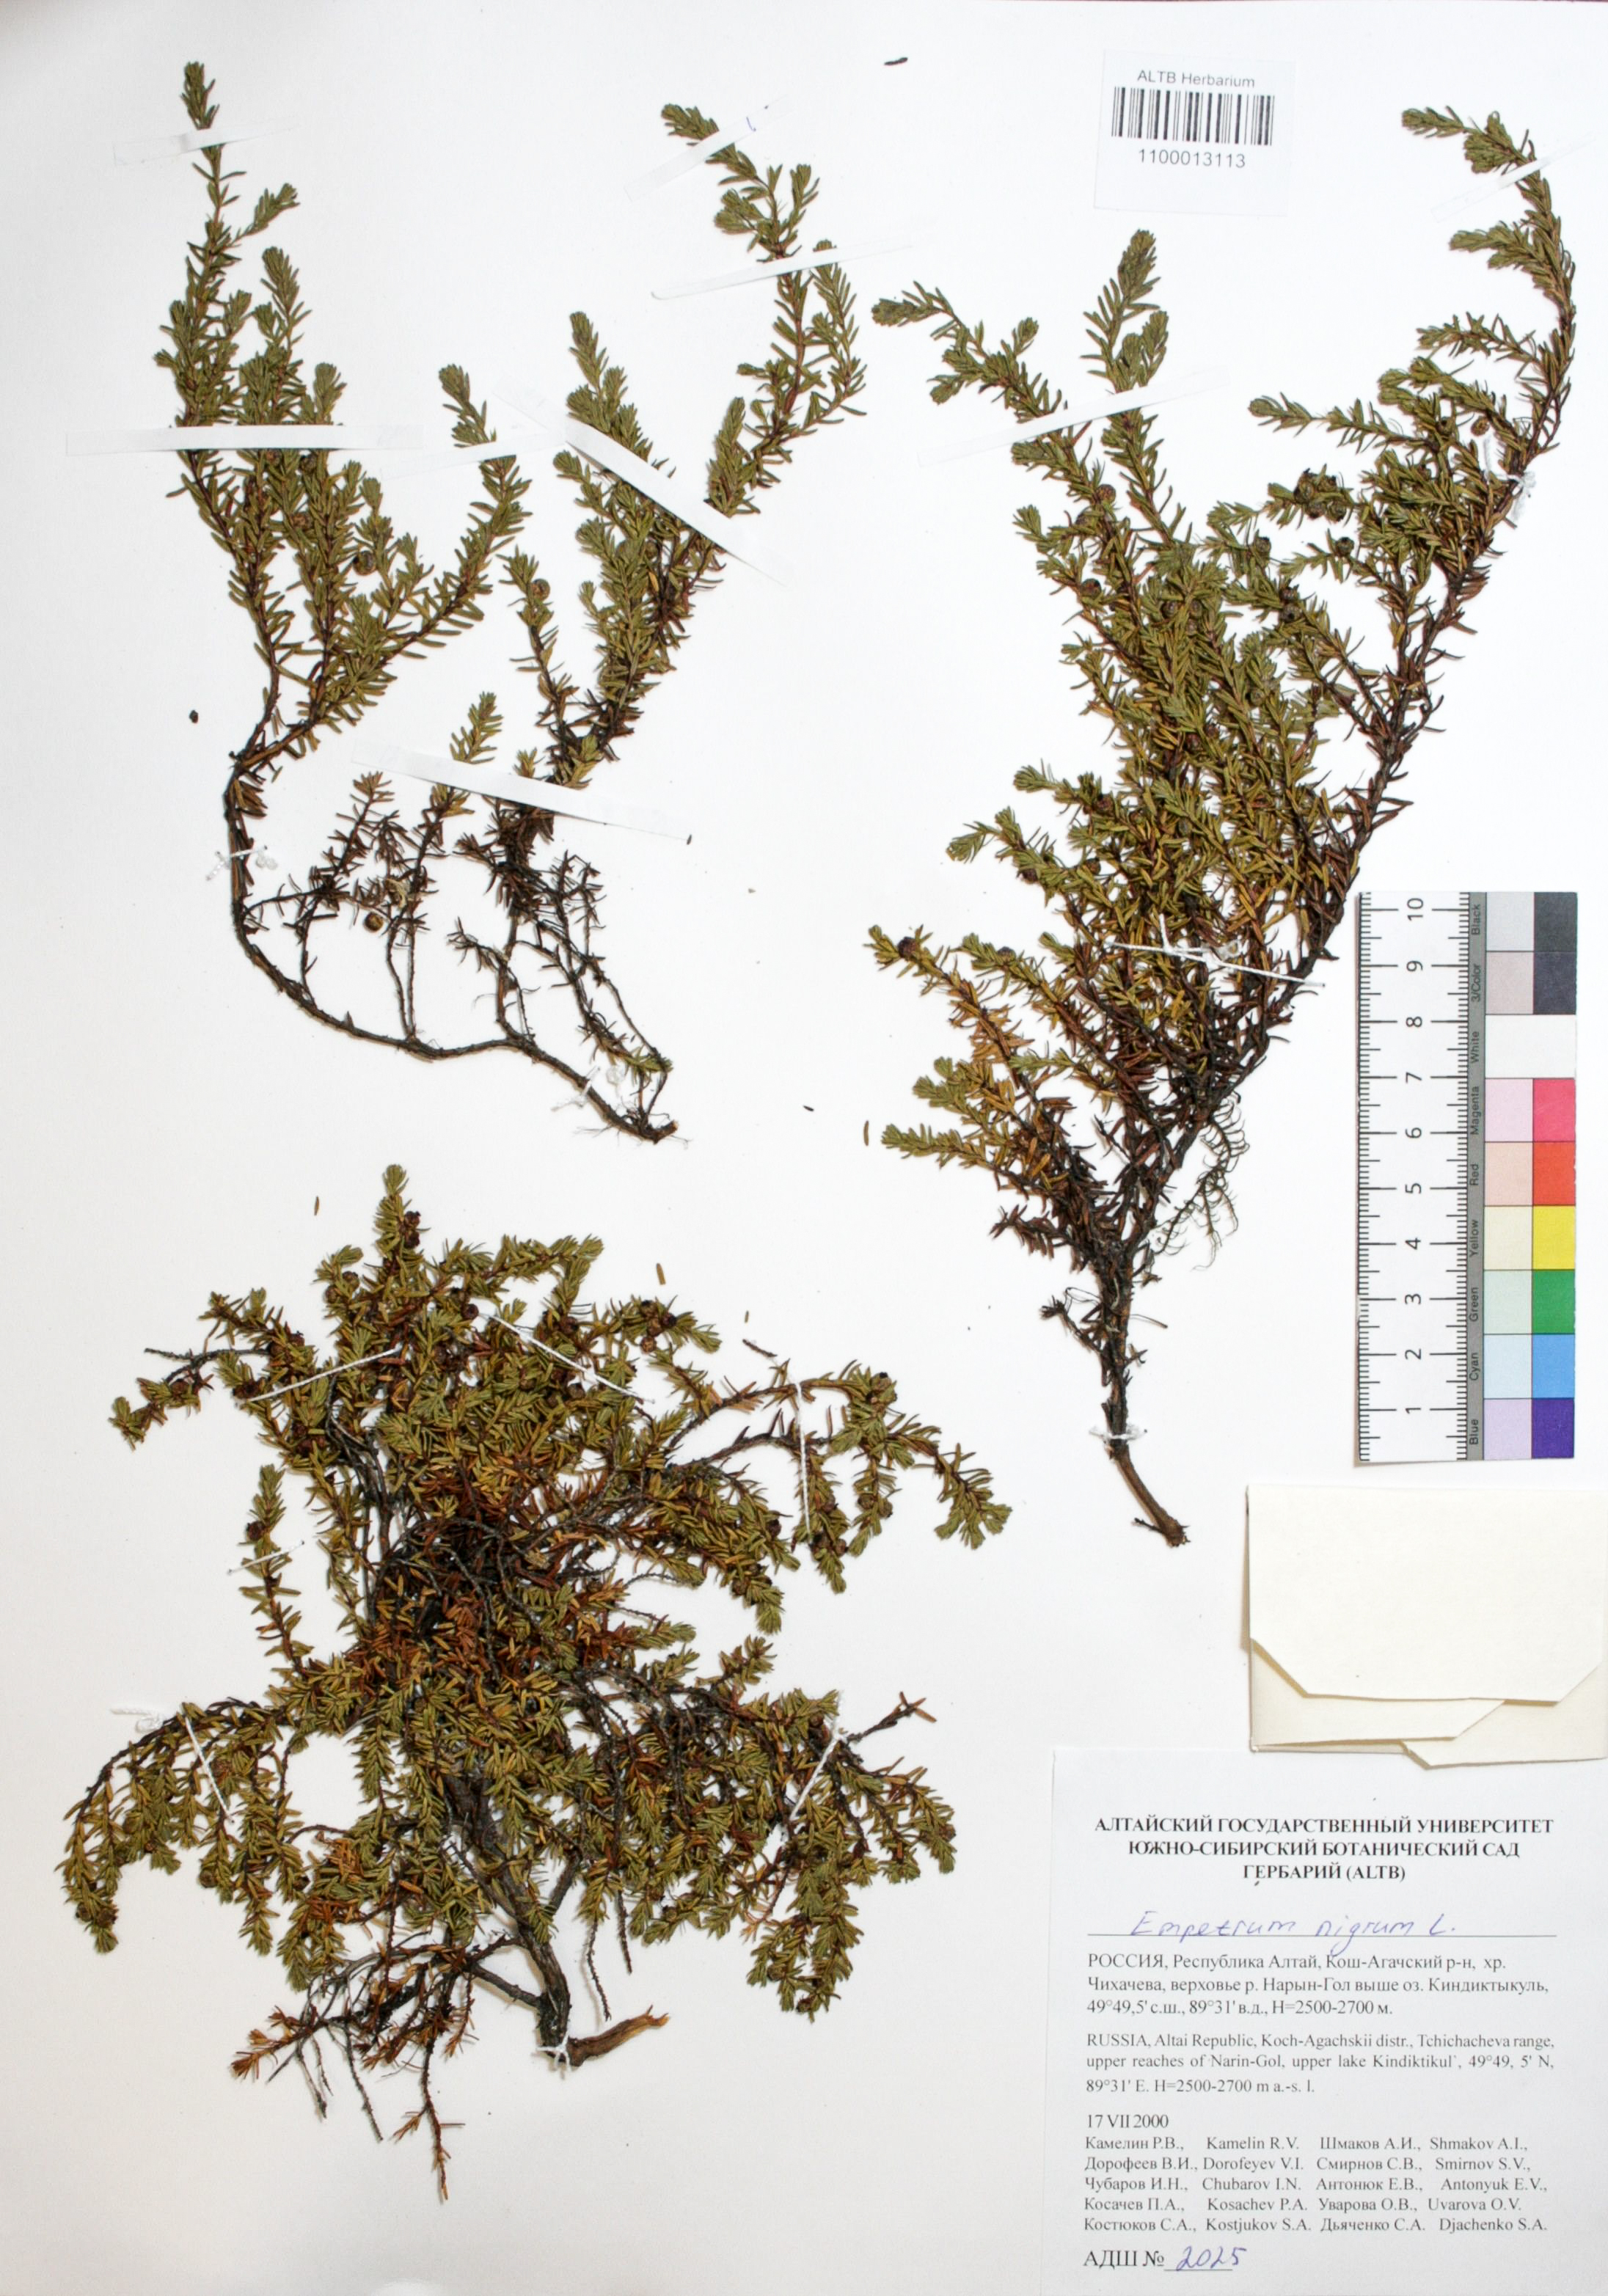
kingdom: Plantae
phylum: Tracheophyta
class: Magnoliopsida
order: Ericales
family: Ericaceae
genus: Empetrum
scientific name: Empetrum nigrum
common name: Black crowberry
